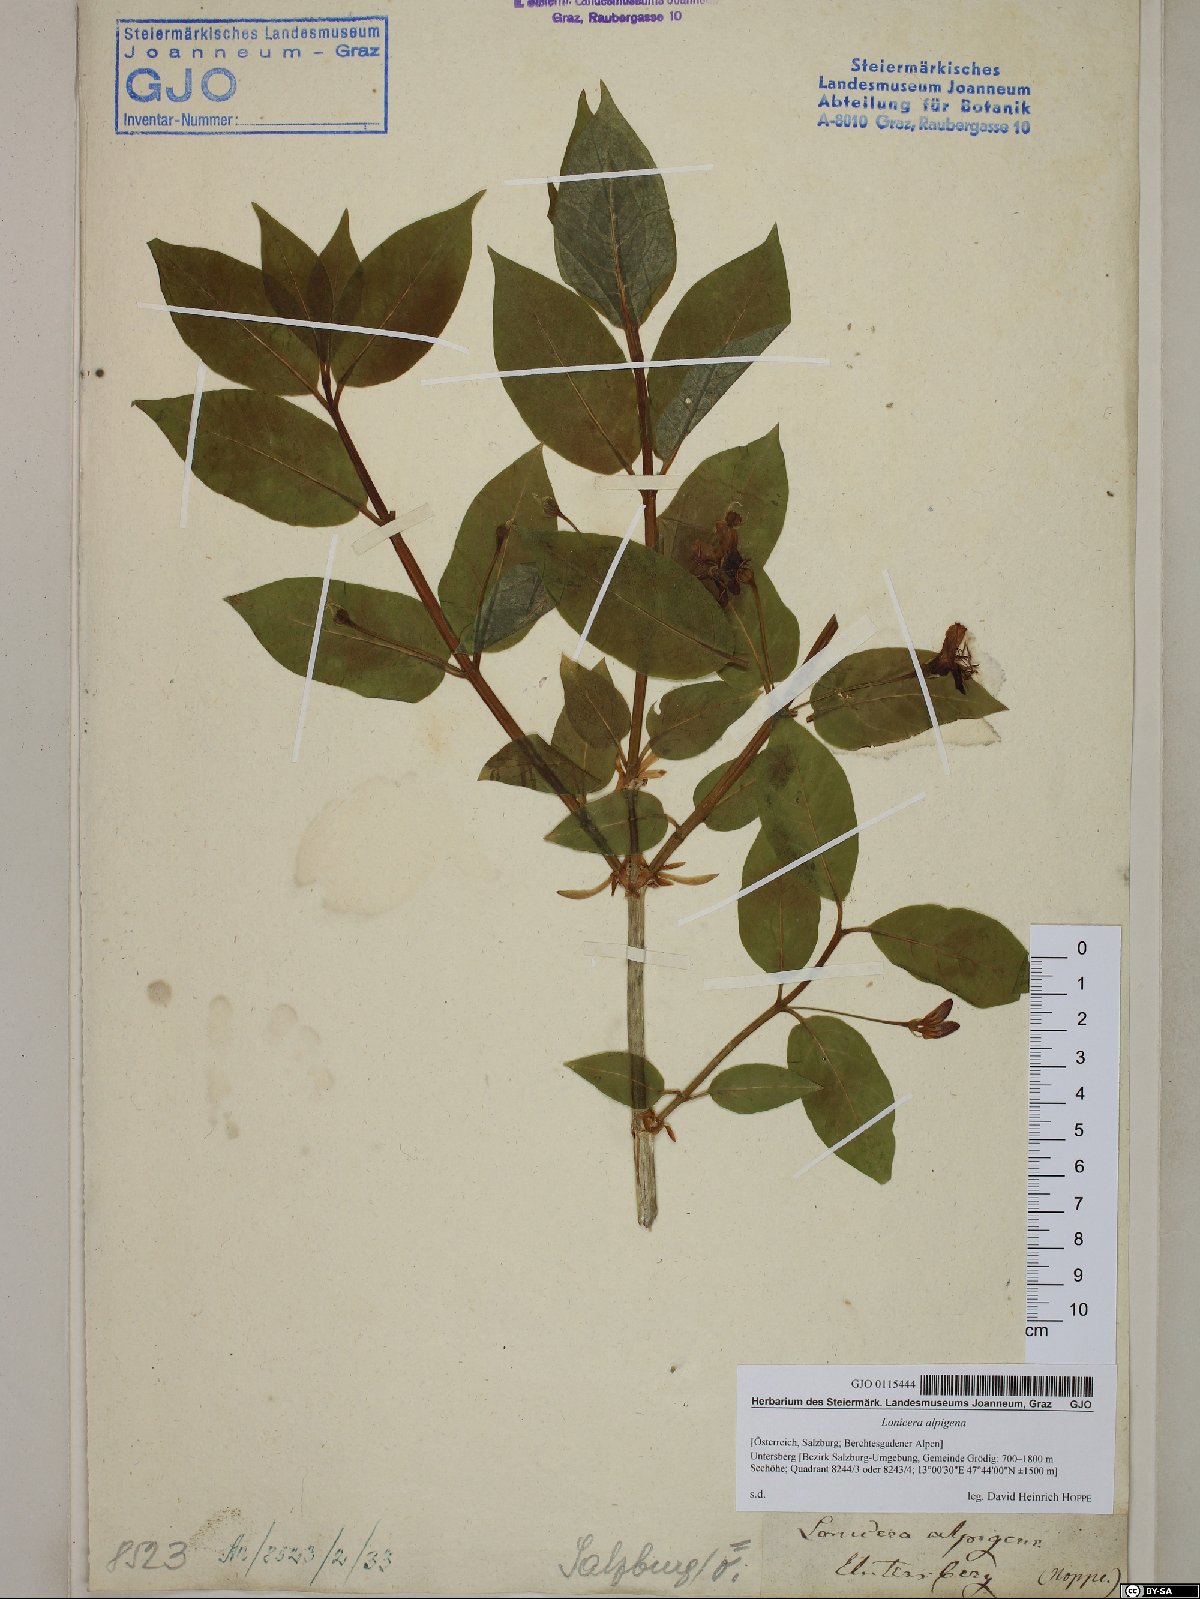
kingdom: Plantae
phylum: Tracheophyta
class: Magnoliopsida
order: Dipsacales
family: Caprifoliaceae
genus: Lonicera
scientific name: Lonicera alpigena
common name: Alpine honeysuckle
